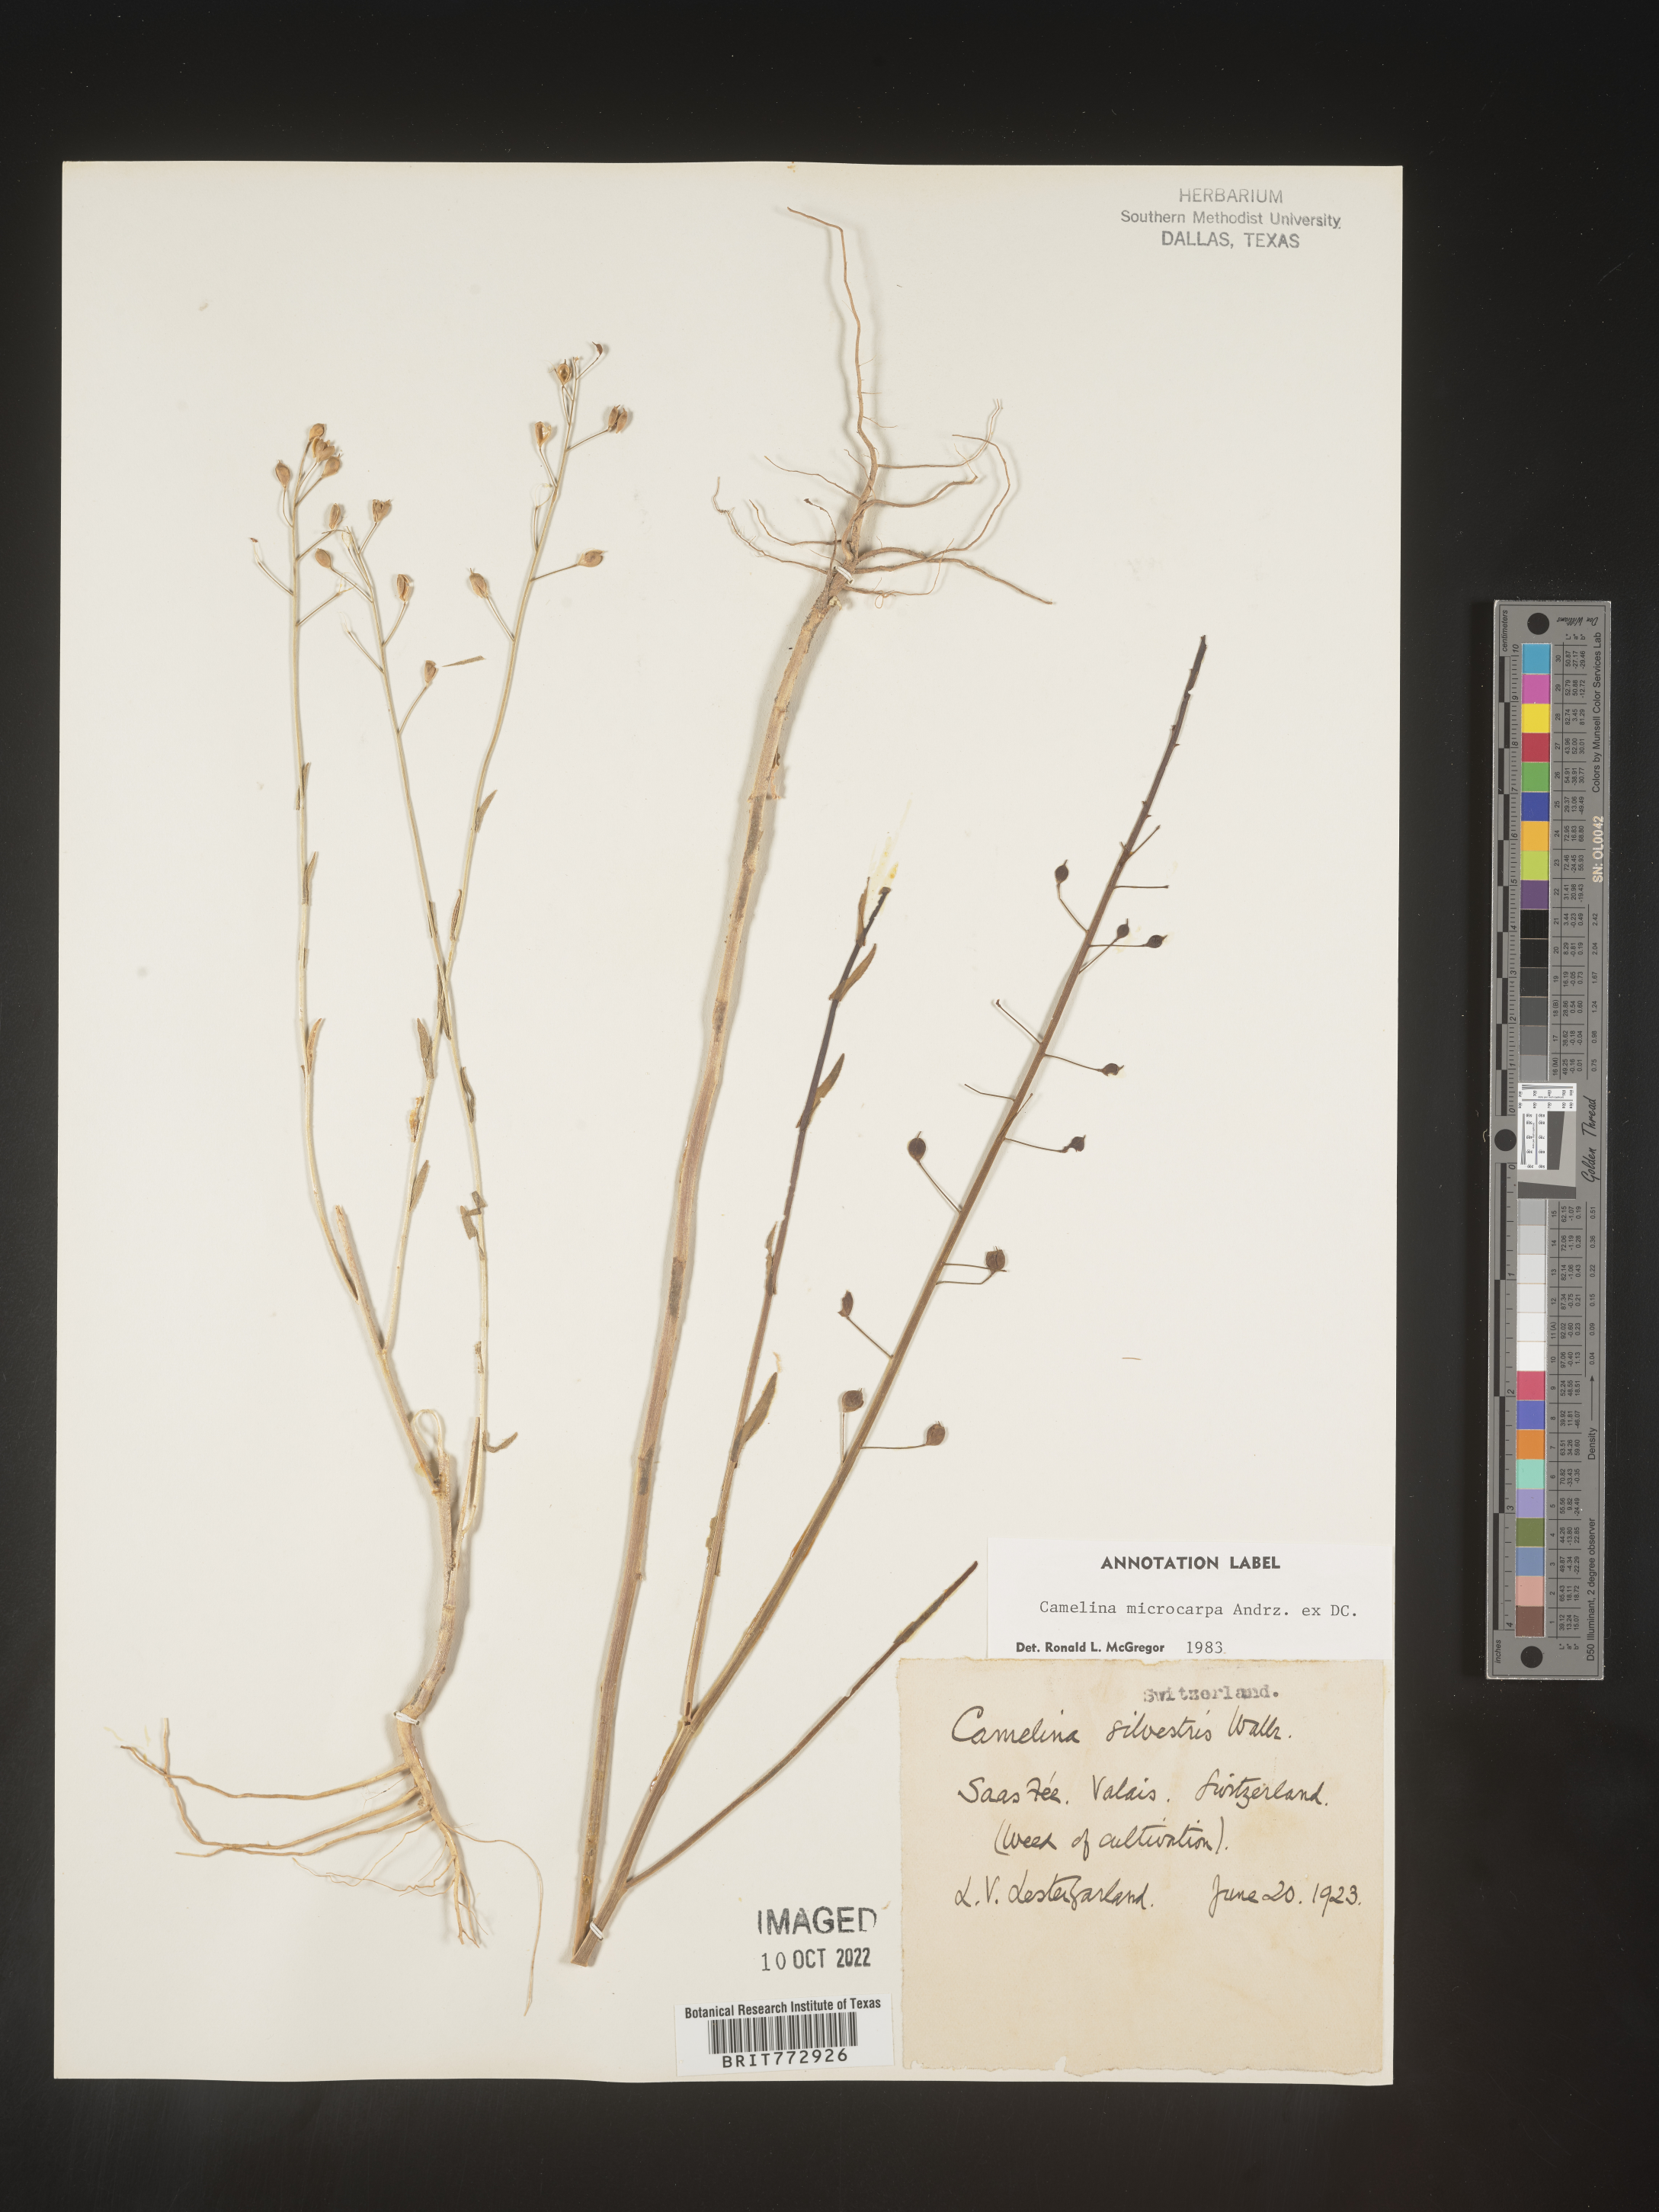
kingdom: Plantae
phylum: Tracheophyta
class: Magnoliopsida
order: Brassicales
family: Brassicaceae
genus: Camelina
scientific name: Camelina
